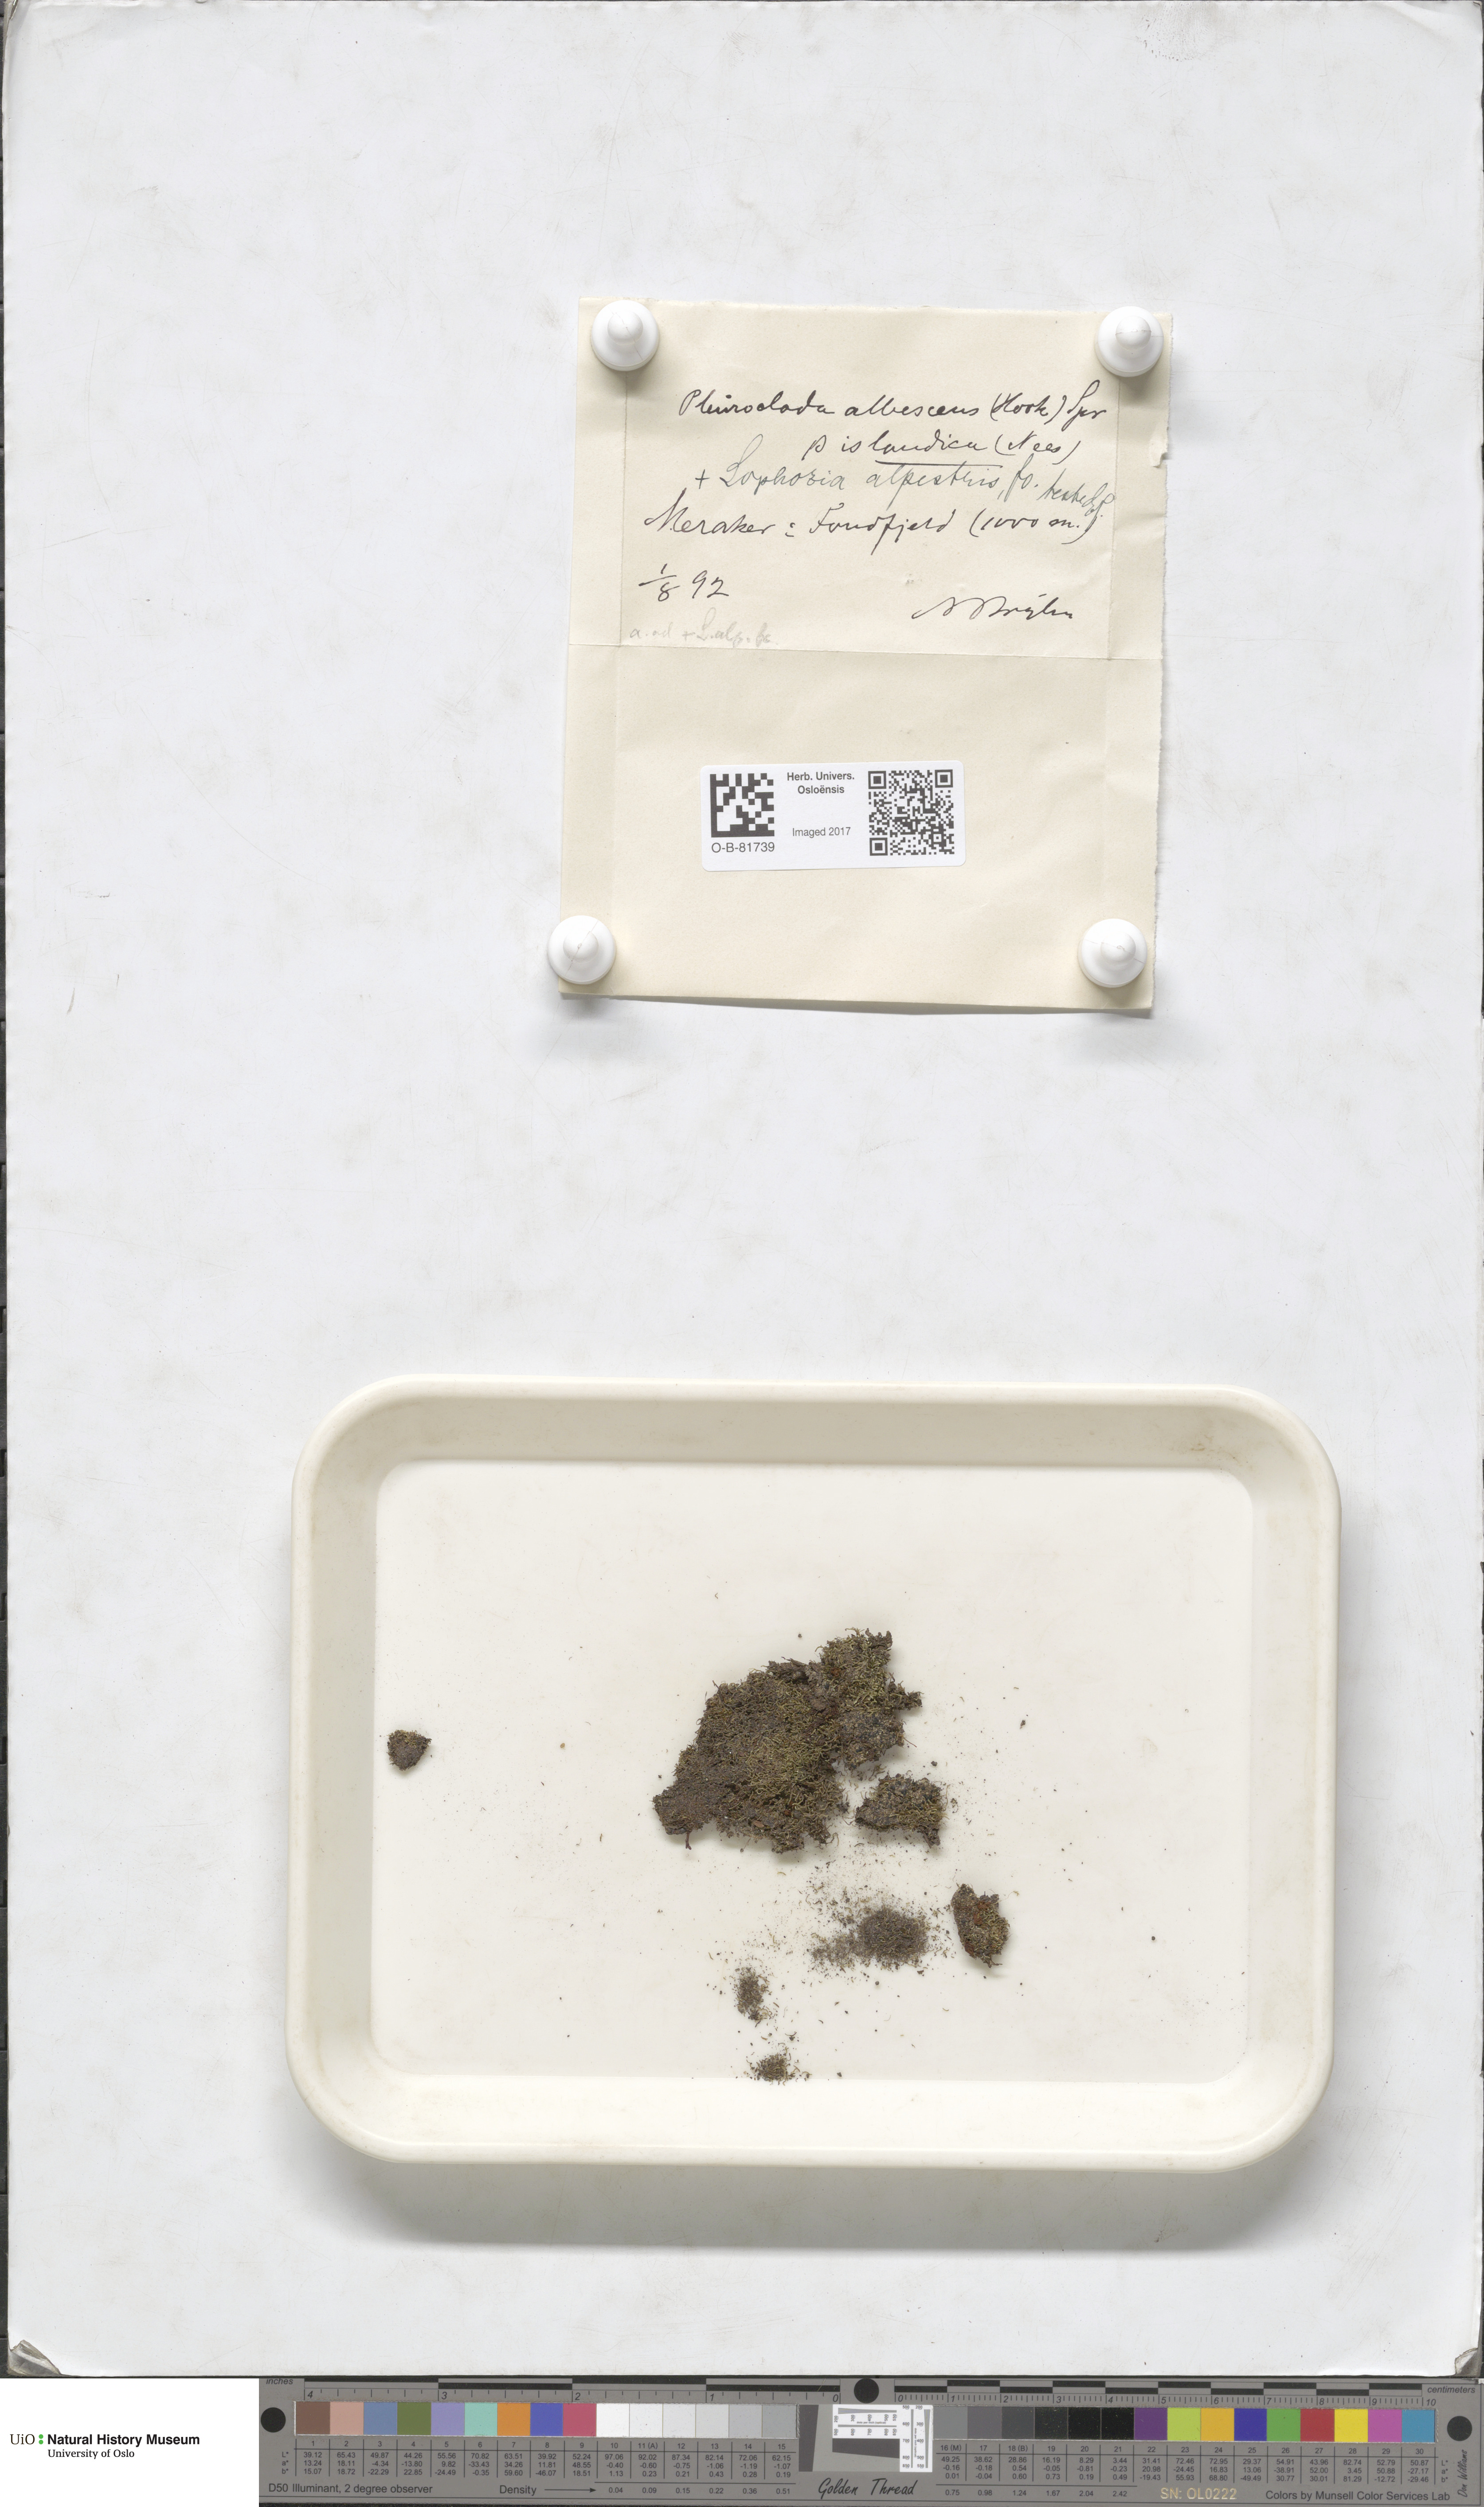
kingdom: Plantae
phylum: Marchantiophyta
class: Jungermanniopsida
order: Jungermanniales
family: Cephaloziaceae
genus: Fuscocephaloziopsis
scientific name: Fuscocephaloziopsis albescens
